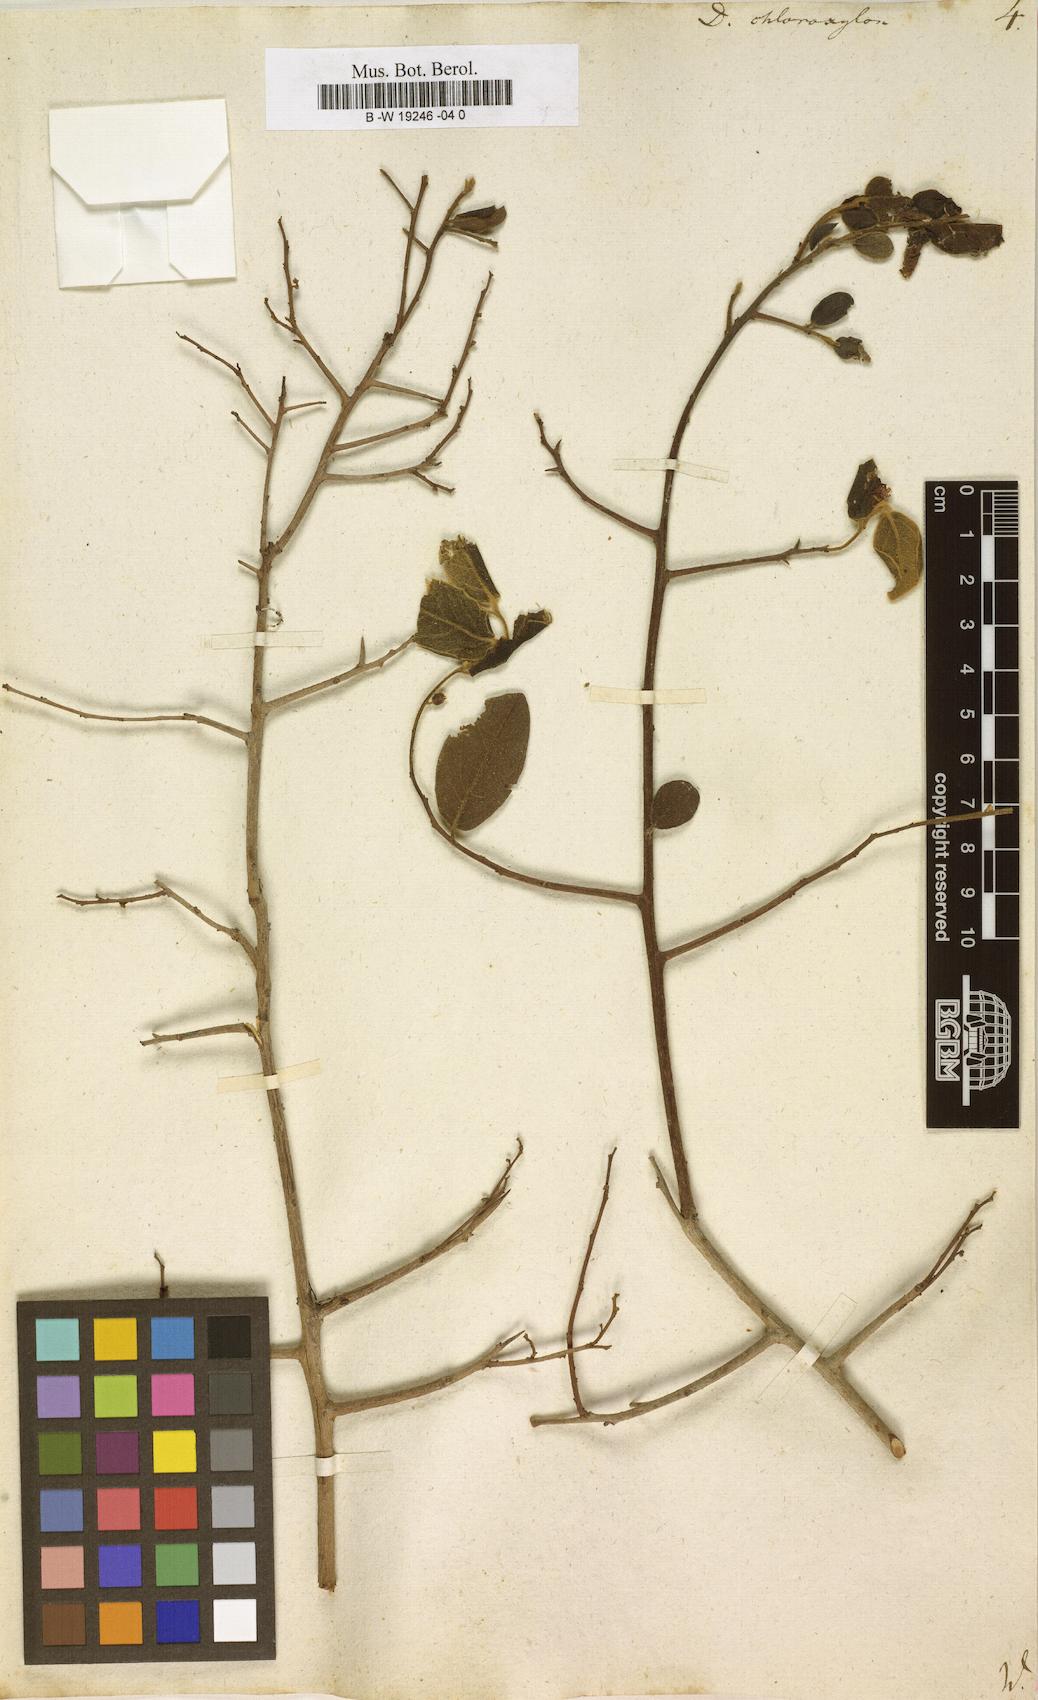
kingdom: Plantae
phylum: Tracheophyta
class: Magnoliopsida
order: Ericales
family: Ebenaceae
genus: Diospyros
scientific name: Diospyros chloroxylon
